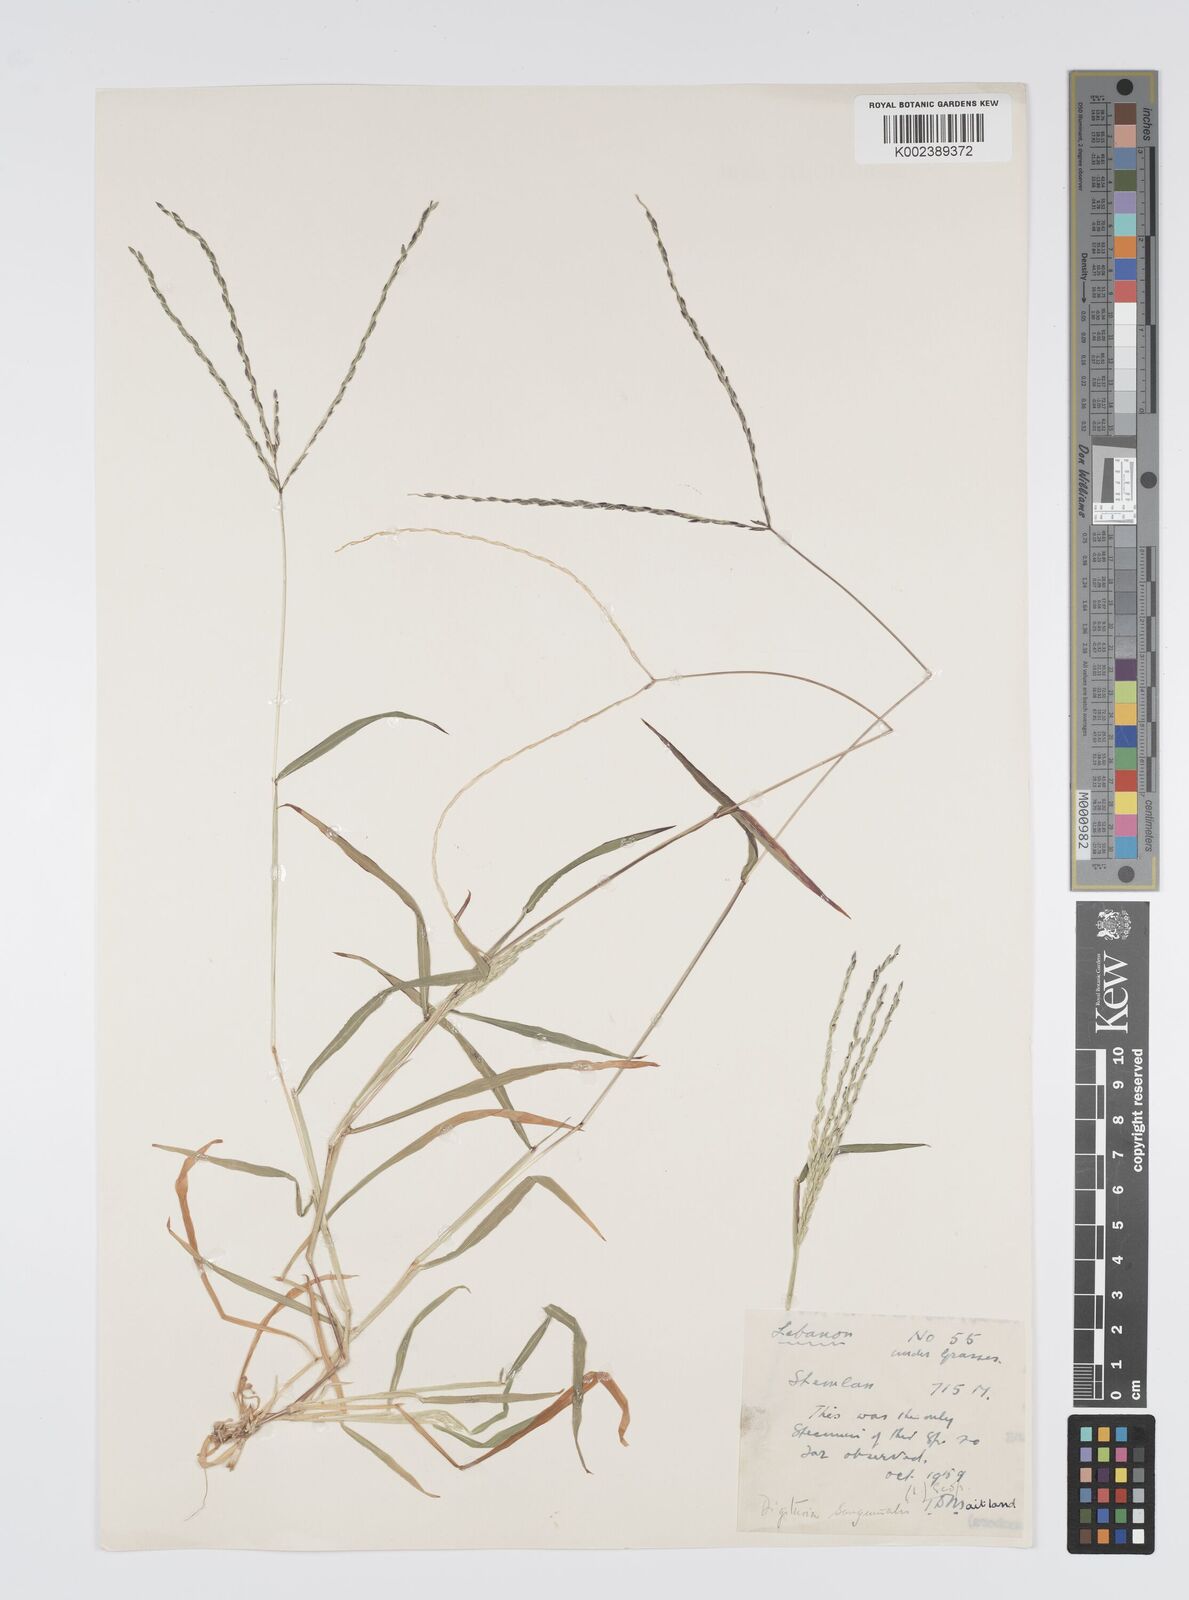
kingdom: Plantae
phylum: Tracheophyta
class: Liliopsida
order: Poales
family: Poaceae
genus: Digitaria
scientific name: Digitaria sanguinalis
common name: Hairy crabgrass
